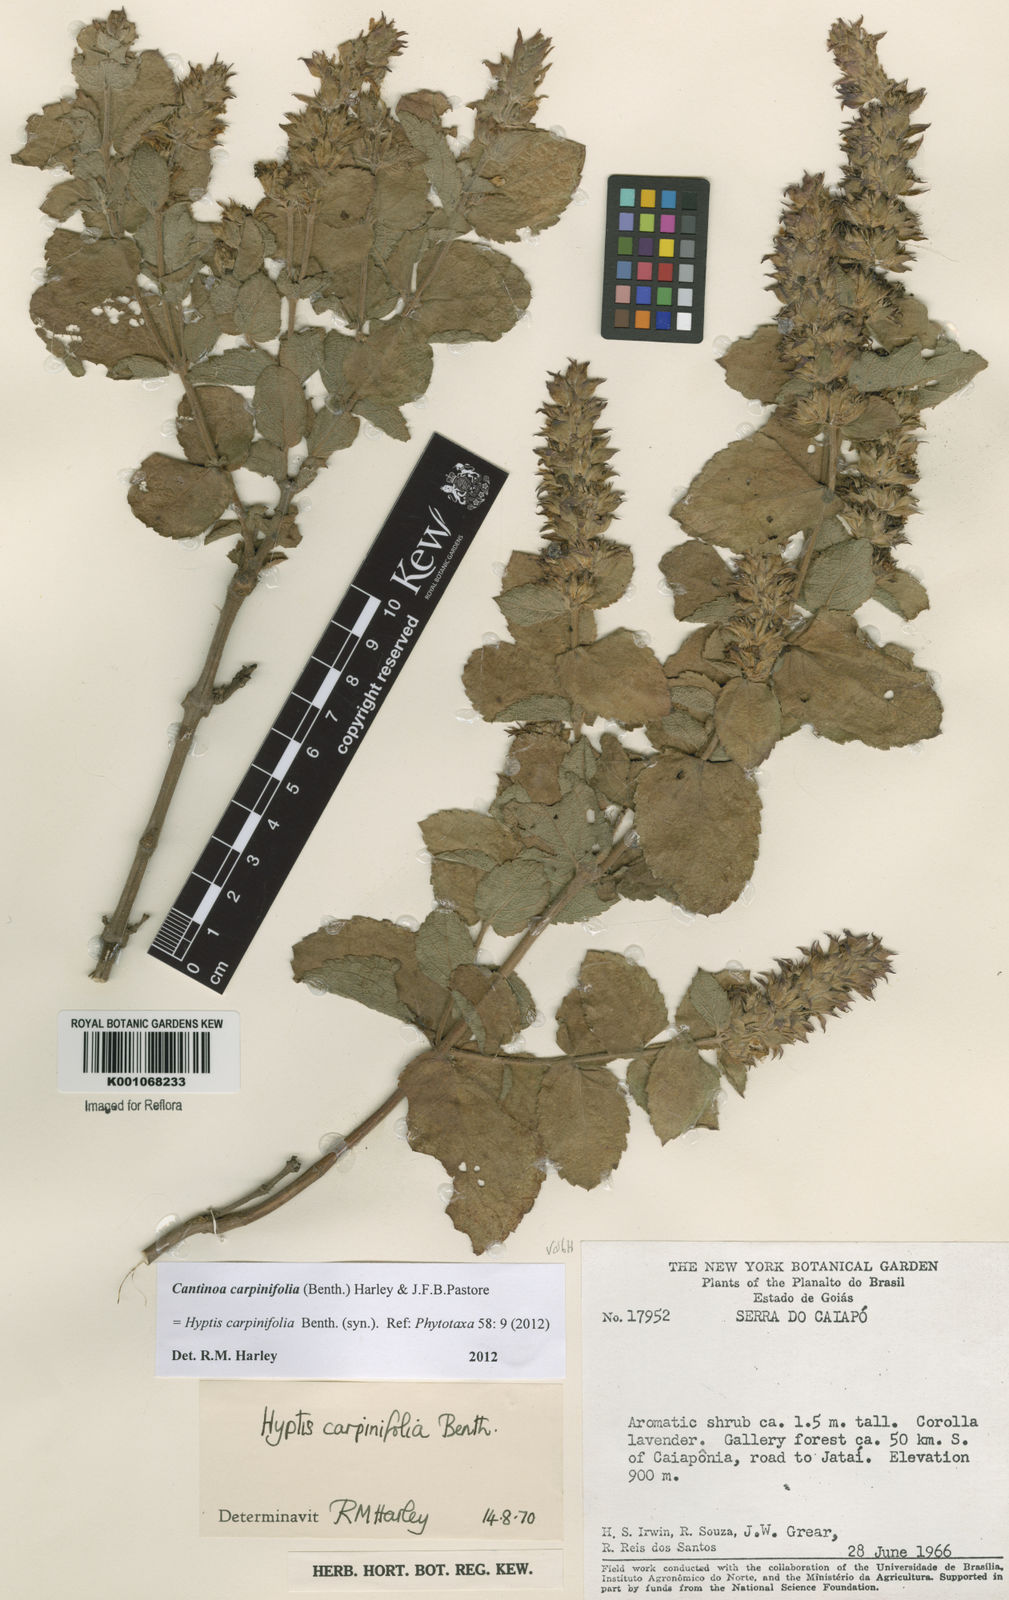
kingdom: Plantae
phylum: Tracheophyta
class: Magnoliopsida
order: Lamiales
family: Lamiaceae
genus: Cantinoa
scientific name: Cantinoa carpinifolia
